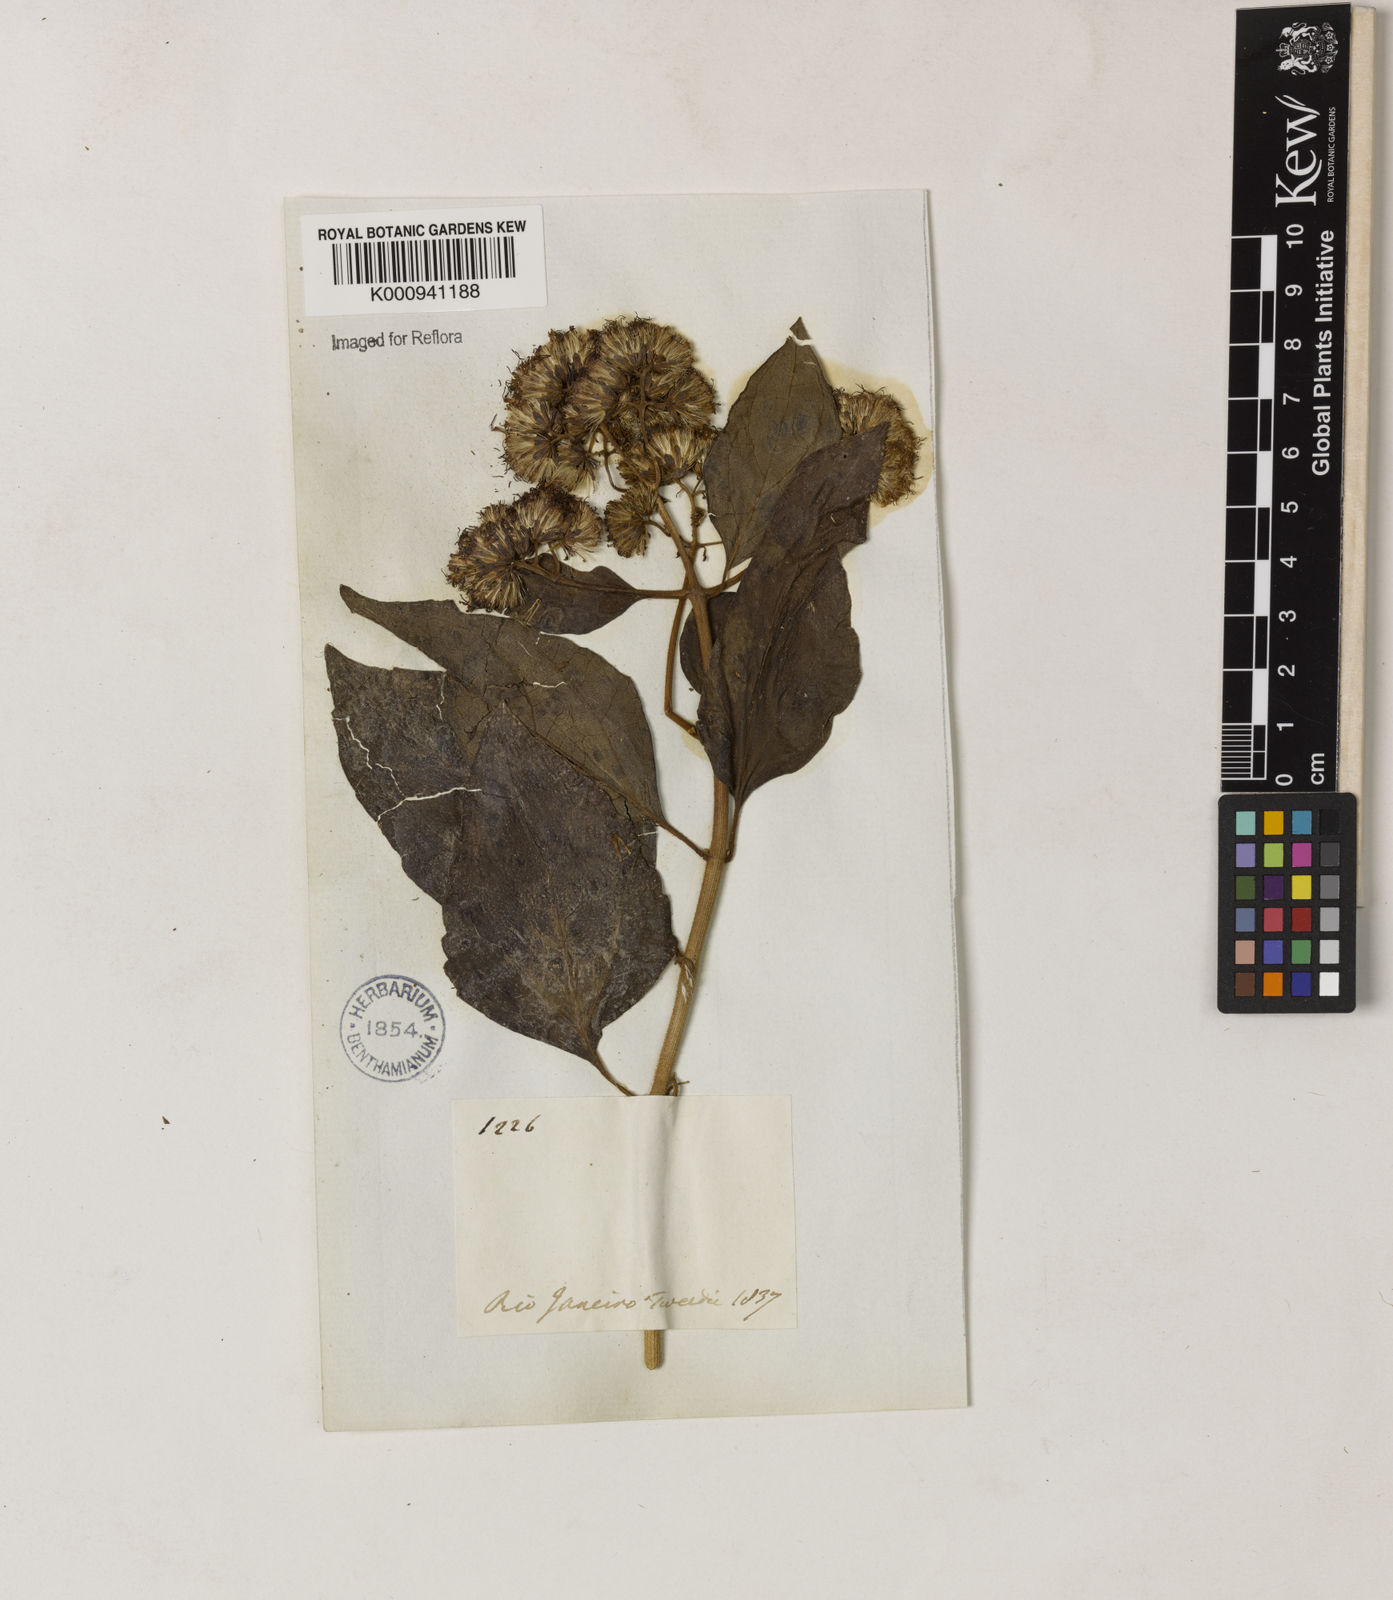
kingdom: Plantae
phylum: Tracheophyta
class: Magnoliopsida
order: Asterales
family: Asteraceae
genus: Dasycondylus
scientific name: Dasycondylus resinosus
